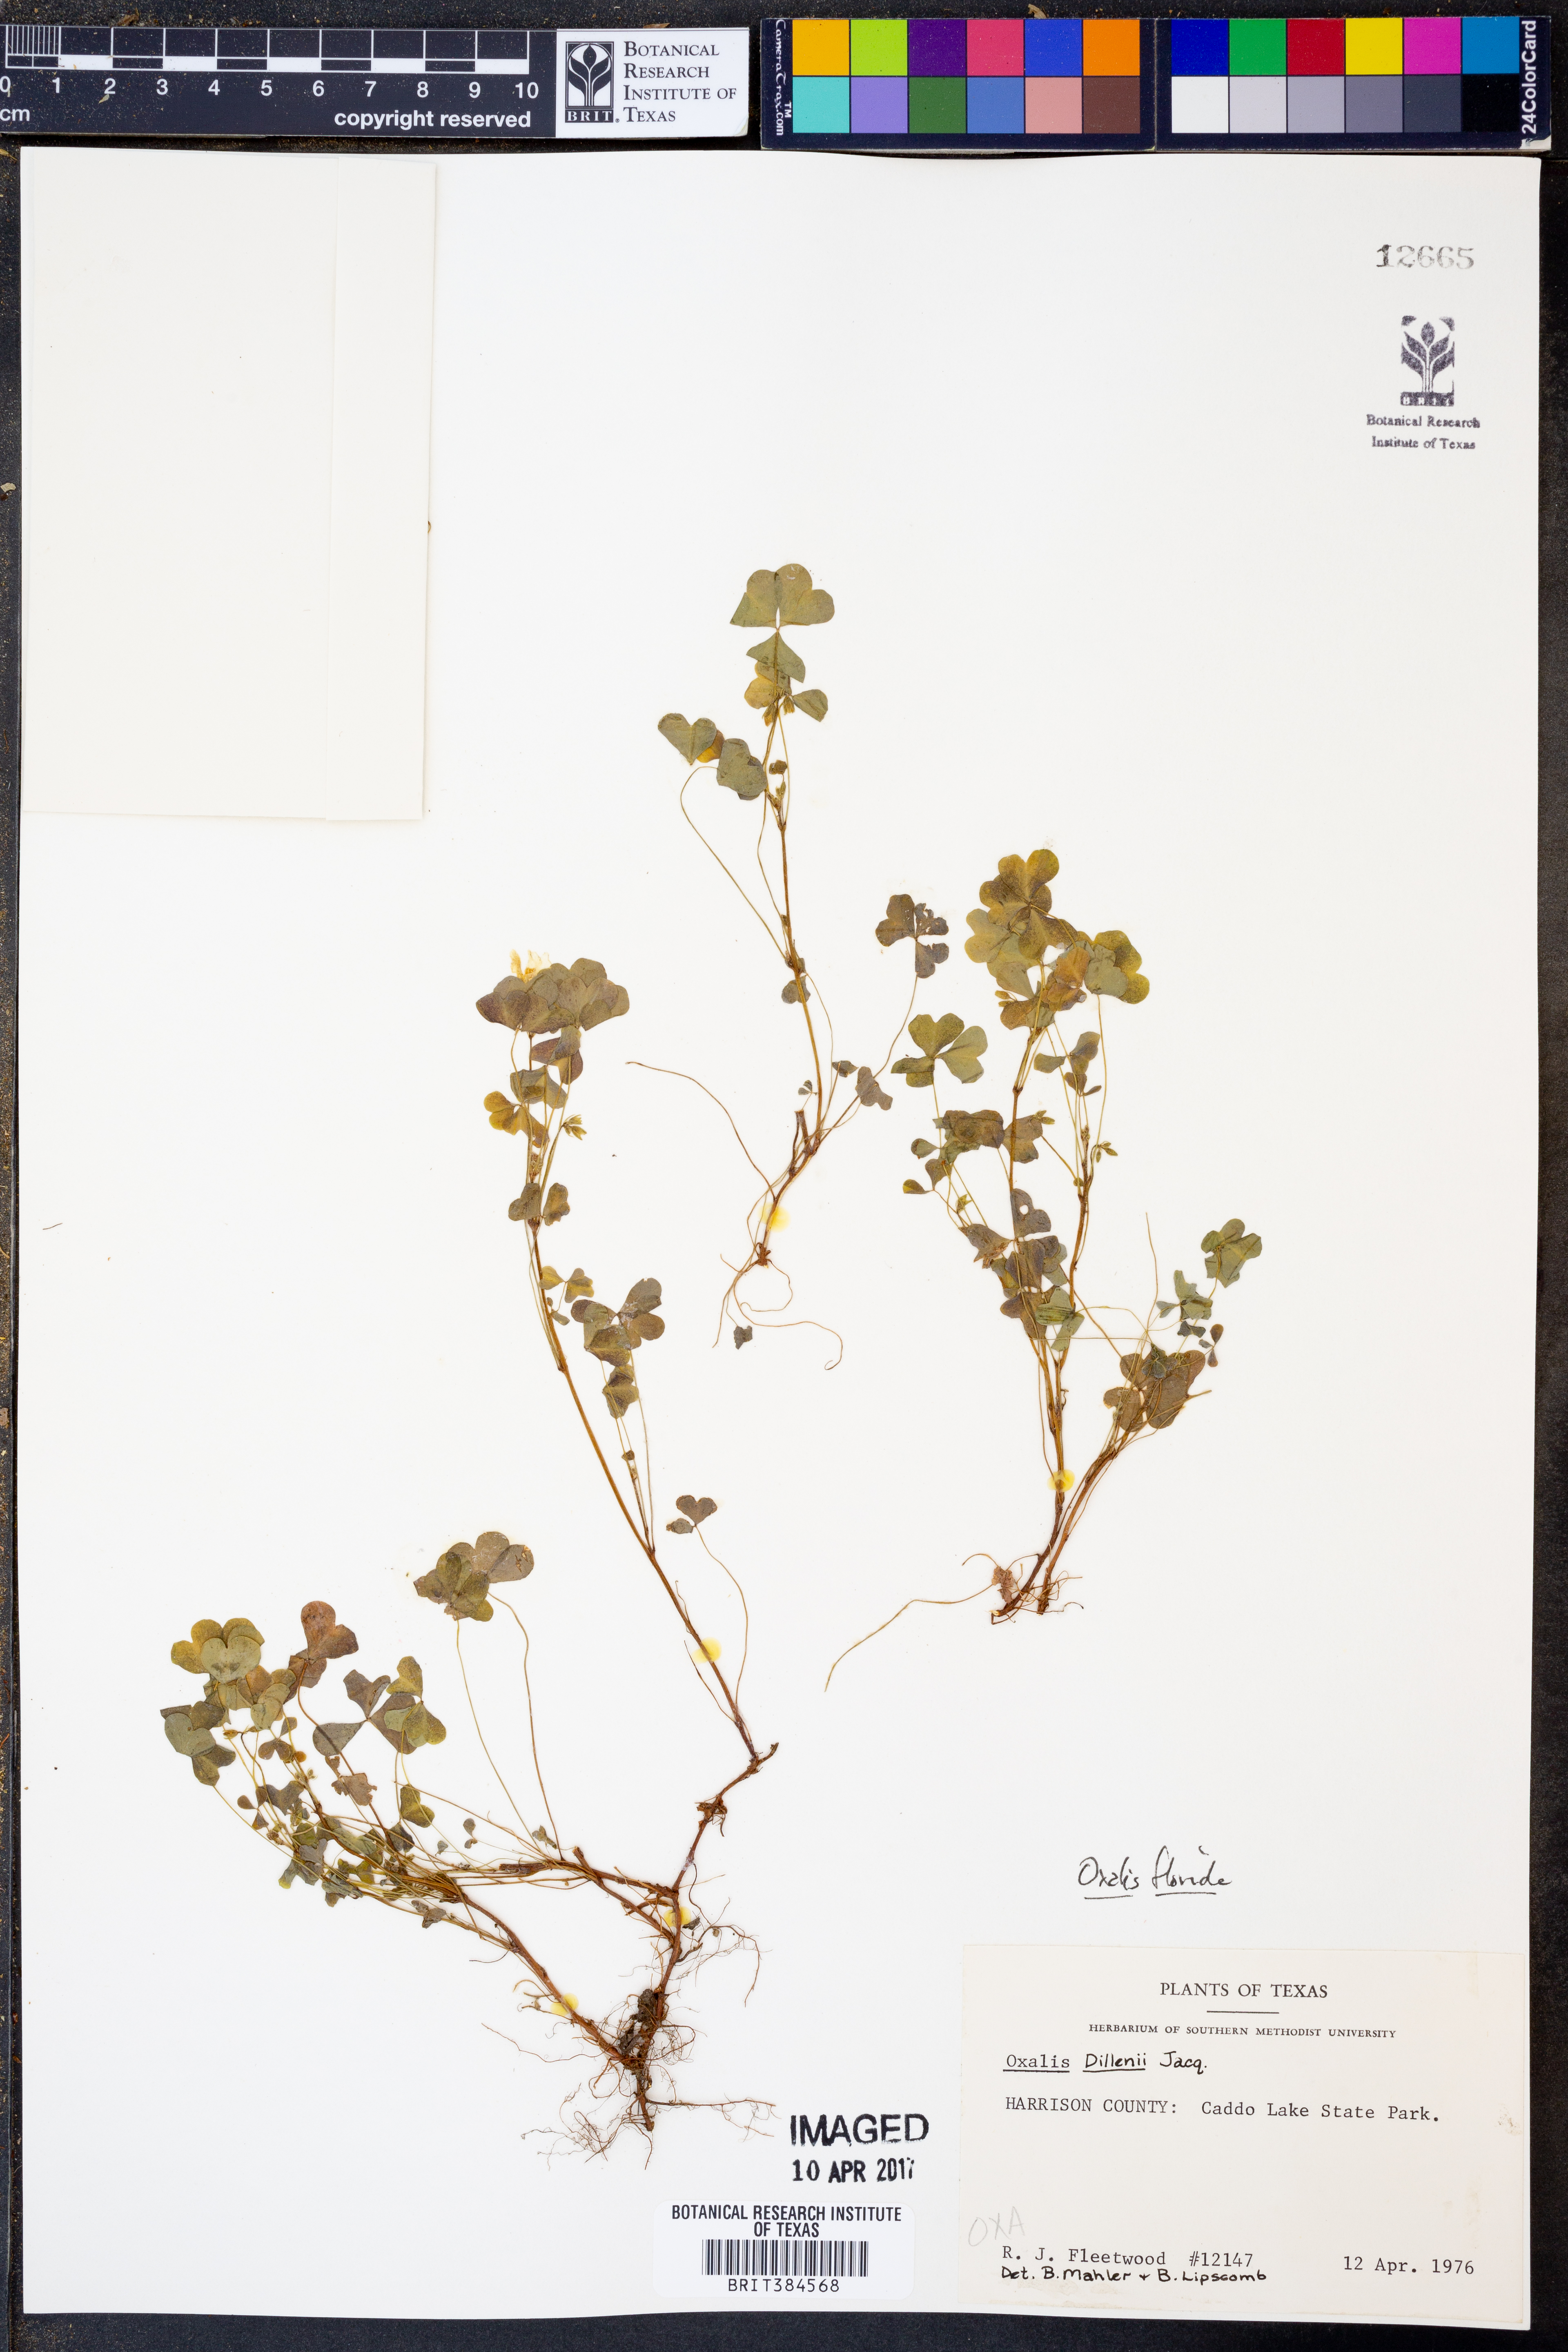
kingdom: Plantae
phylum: Tracheophyta
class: Magnoliopsida
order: Oxalidales
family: Oxalidaceae
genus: Oxalis
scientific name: Oxalis florida
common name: Flowering yellow woodsorrel
